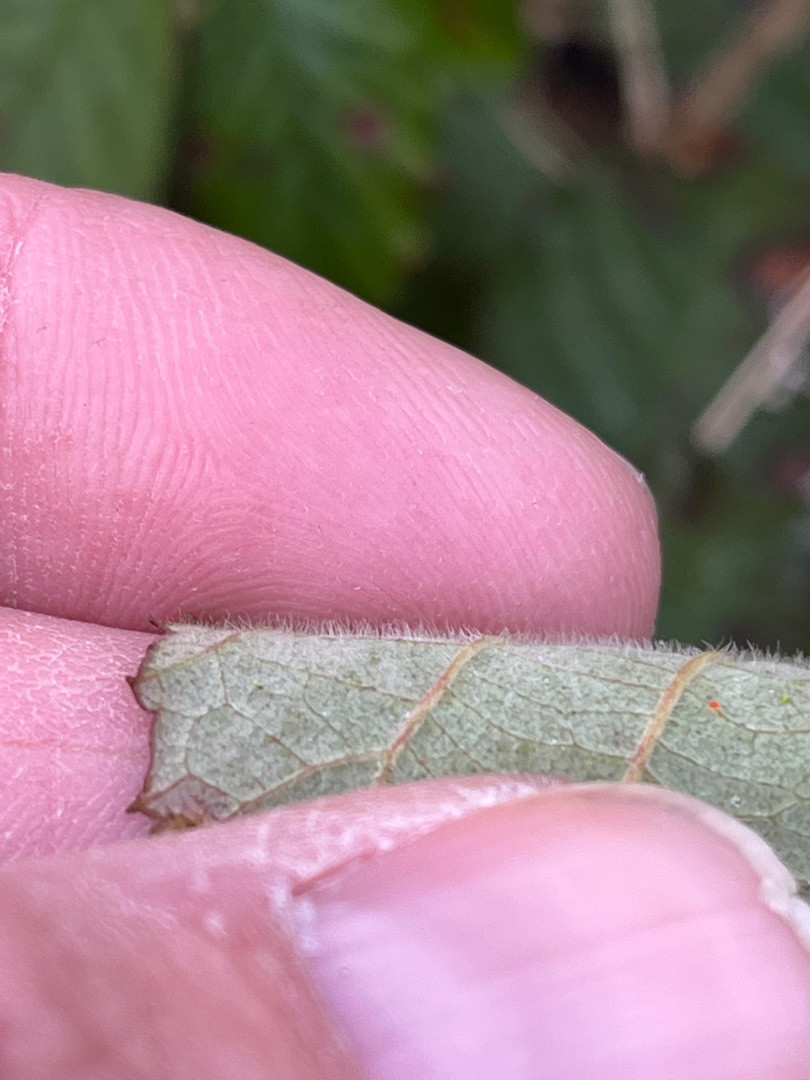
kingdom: Plantae
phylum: Tracheophyta
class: Magnoliopsida
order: Rosales
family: Rosaceae
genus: Rubus
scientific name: Rubus vestitus
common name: Rundbladet brombær
